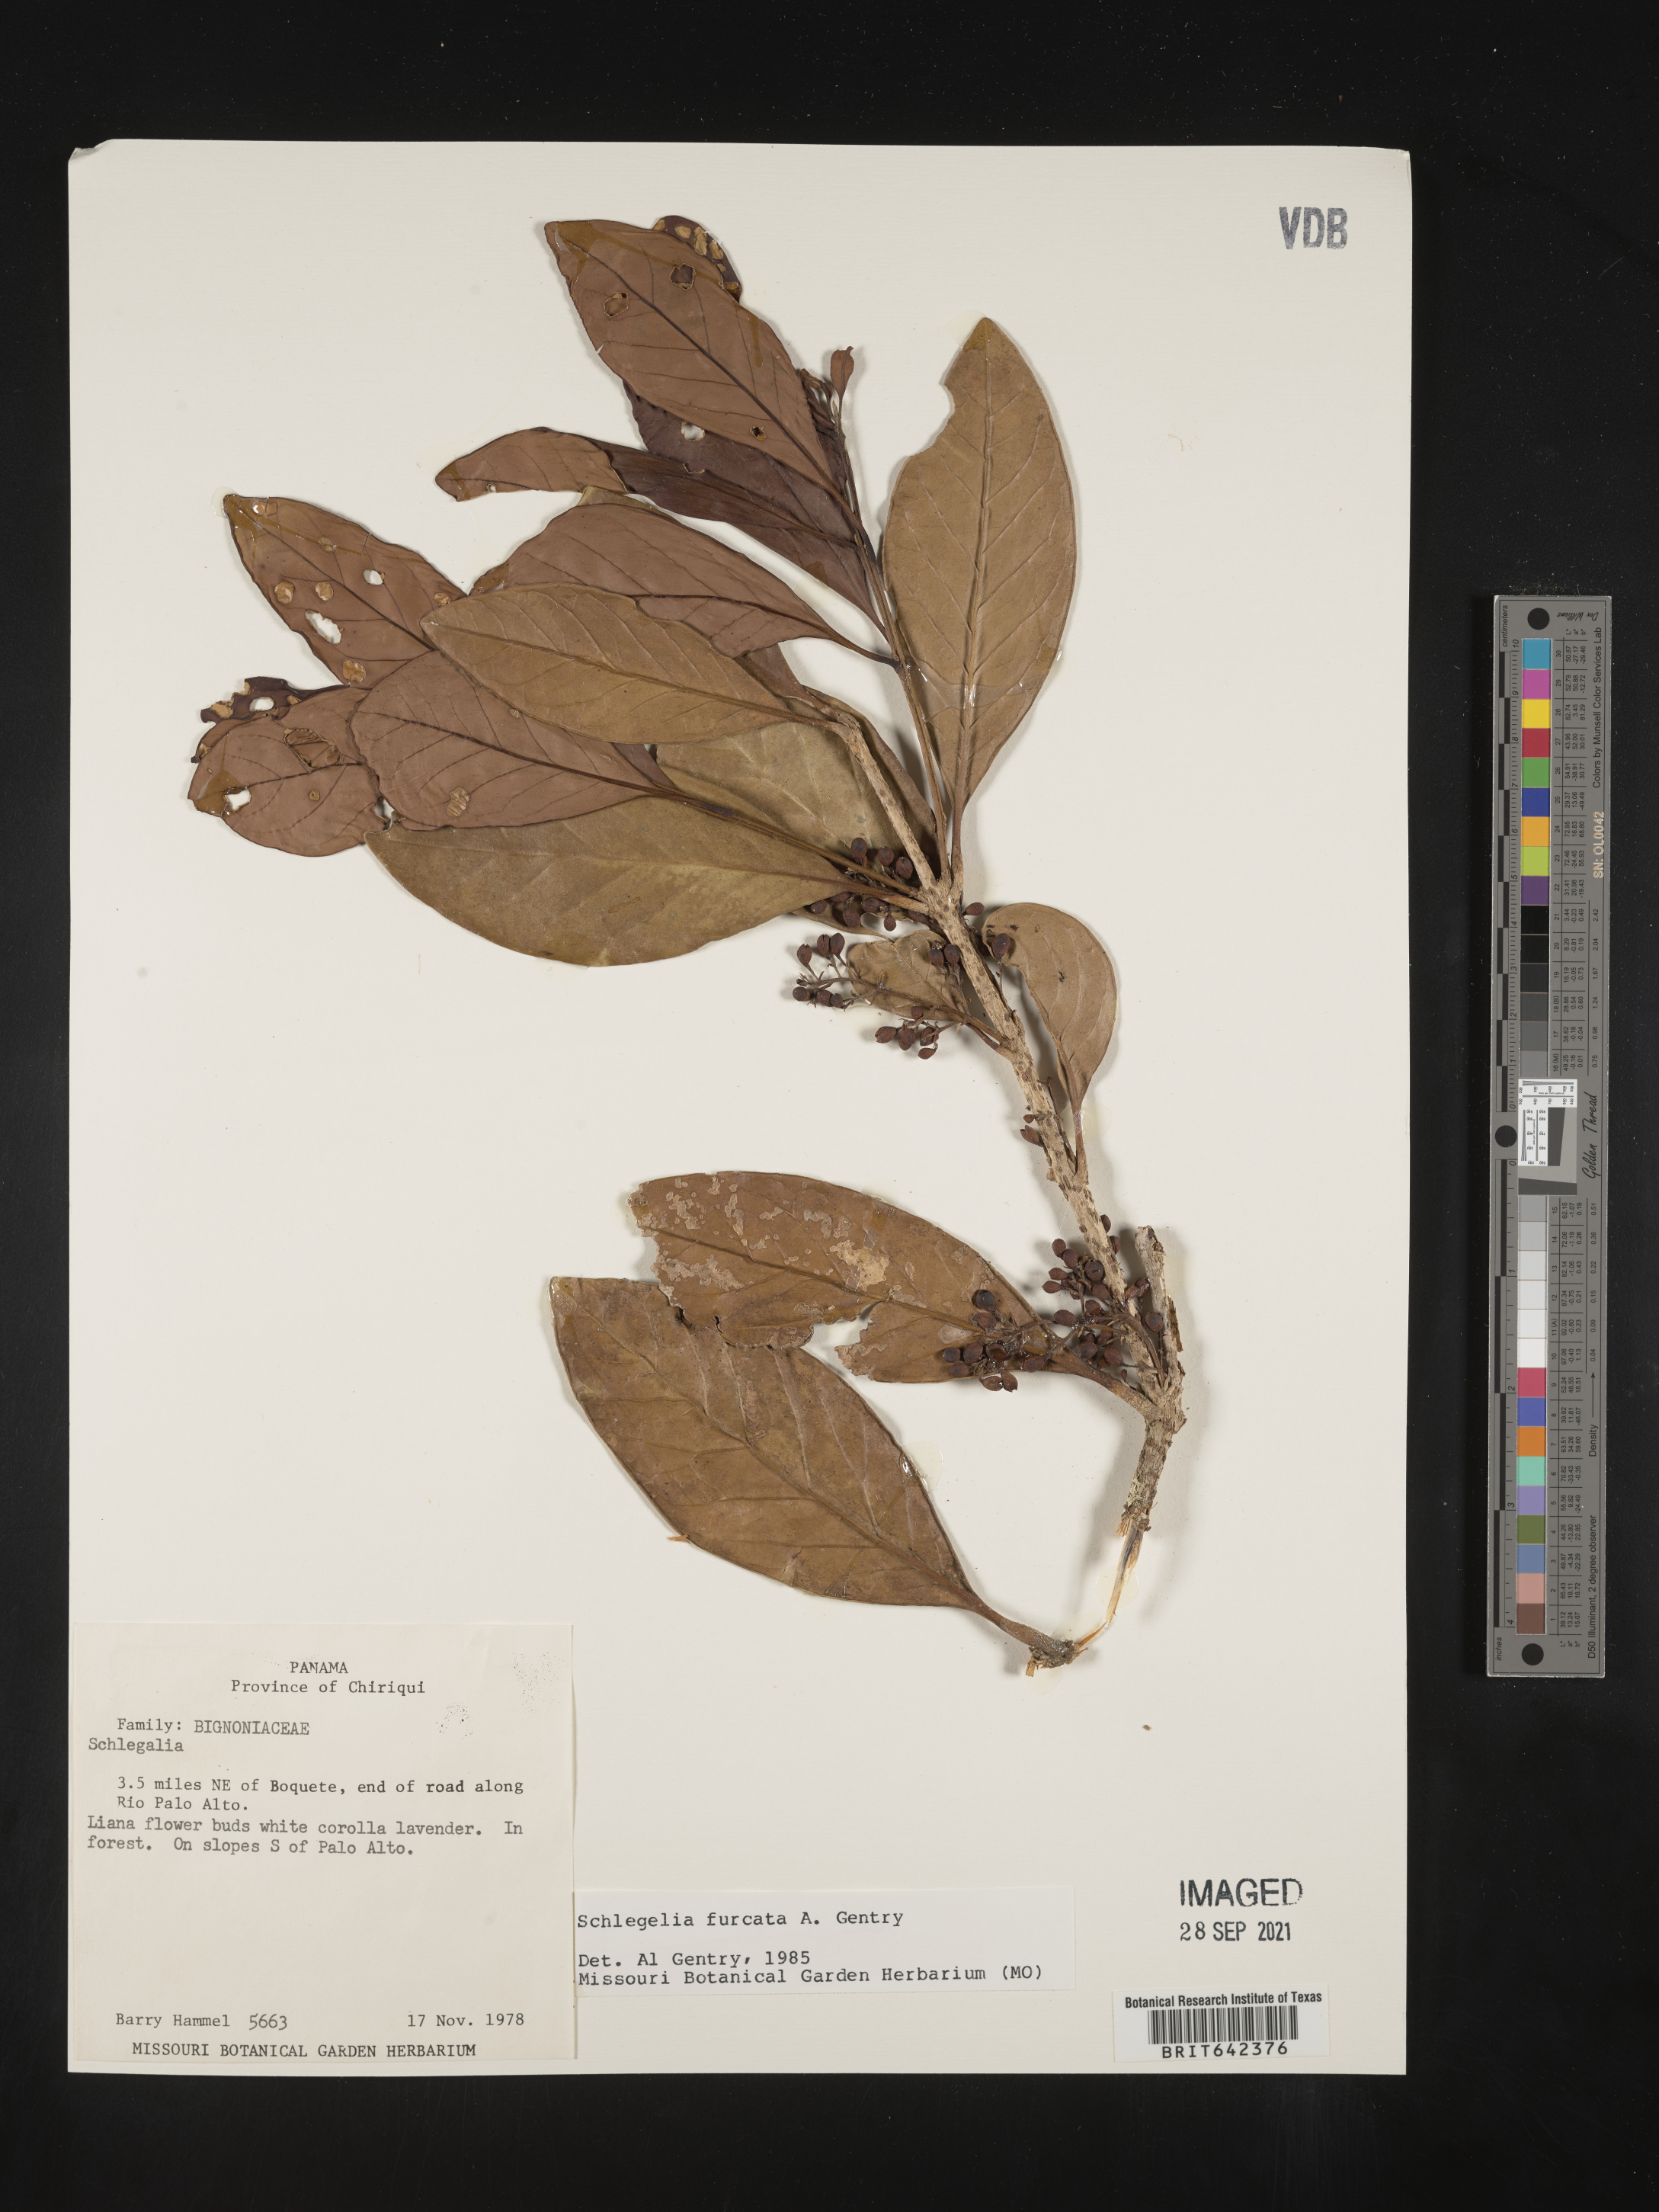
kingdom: Plantae
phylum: Tracheophyta
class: Magnoliopsida
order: Lamiales
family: Schlegeliaceae
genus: Schlegelia
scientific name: Schlegelia
